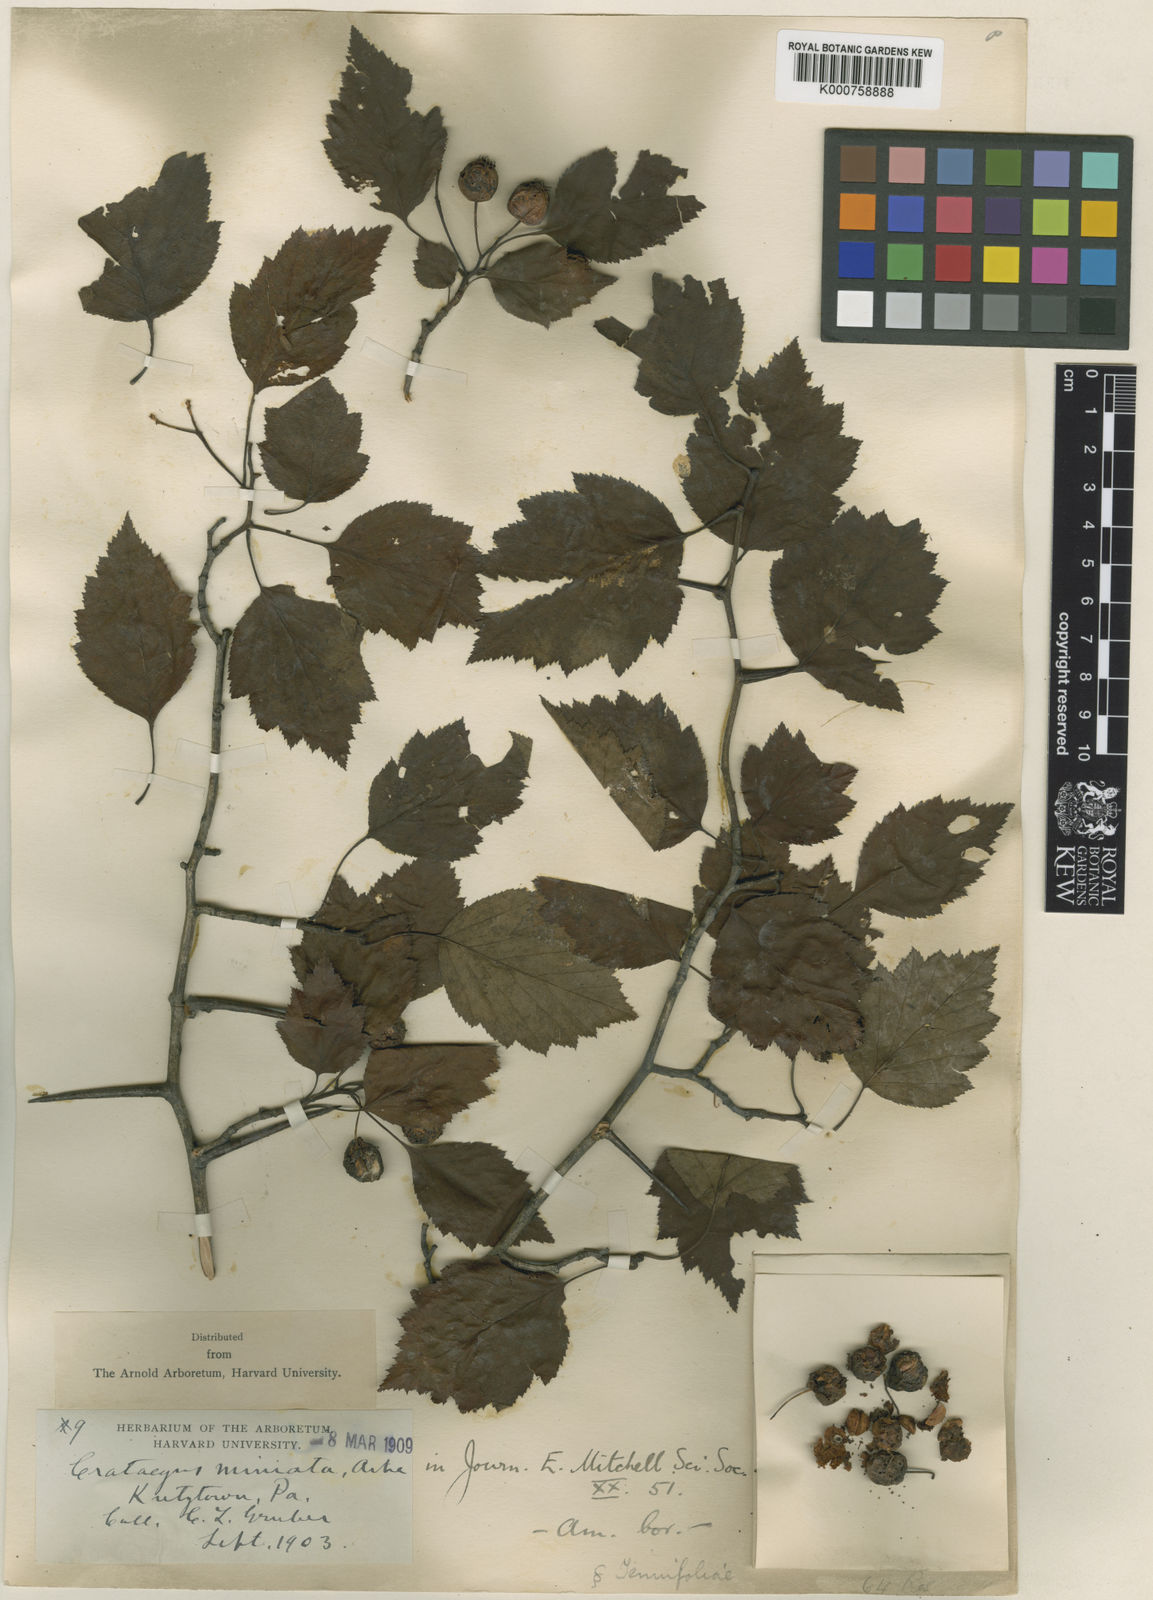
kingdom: Plantae
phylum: Tracheophyta
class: Magnoliopsida
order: Rosales
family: Rosaceae
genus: Crataegus
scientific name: Crataegus miniata
